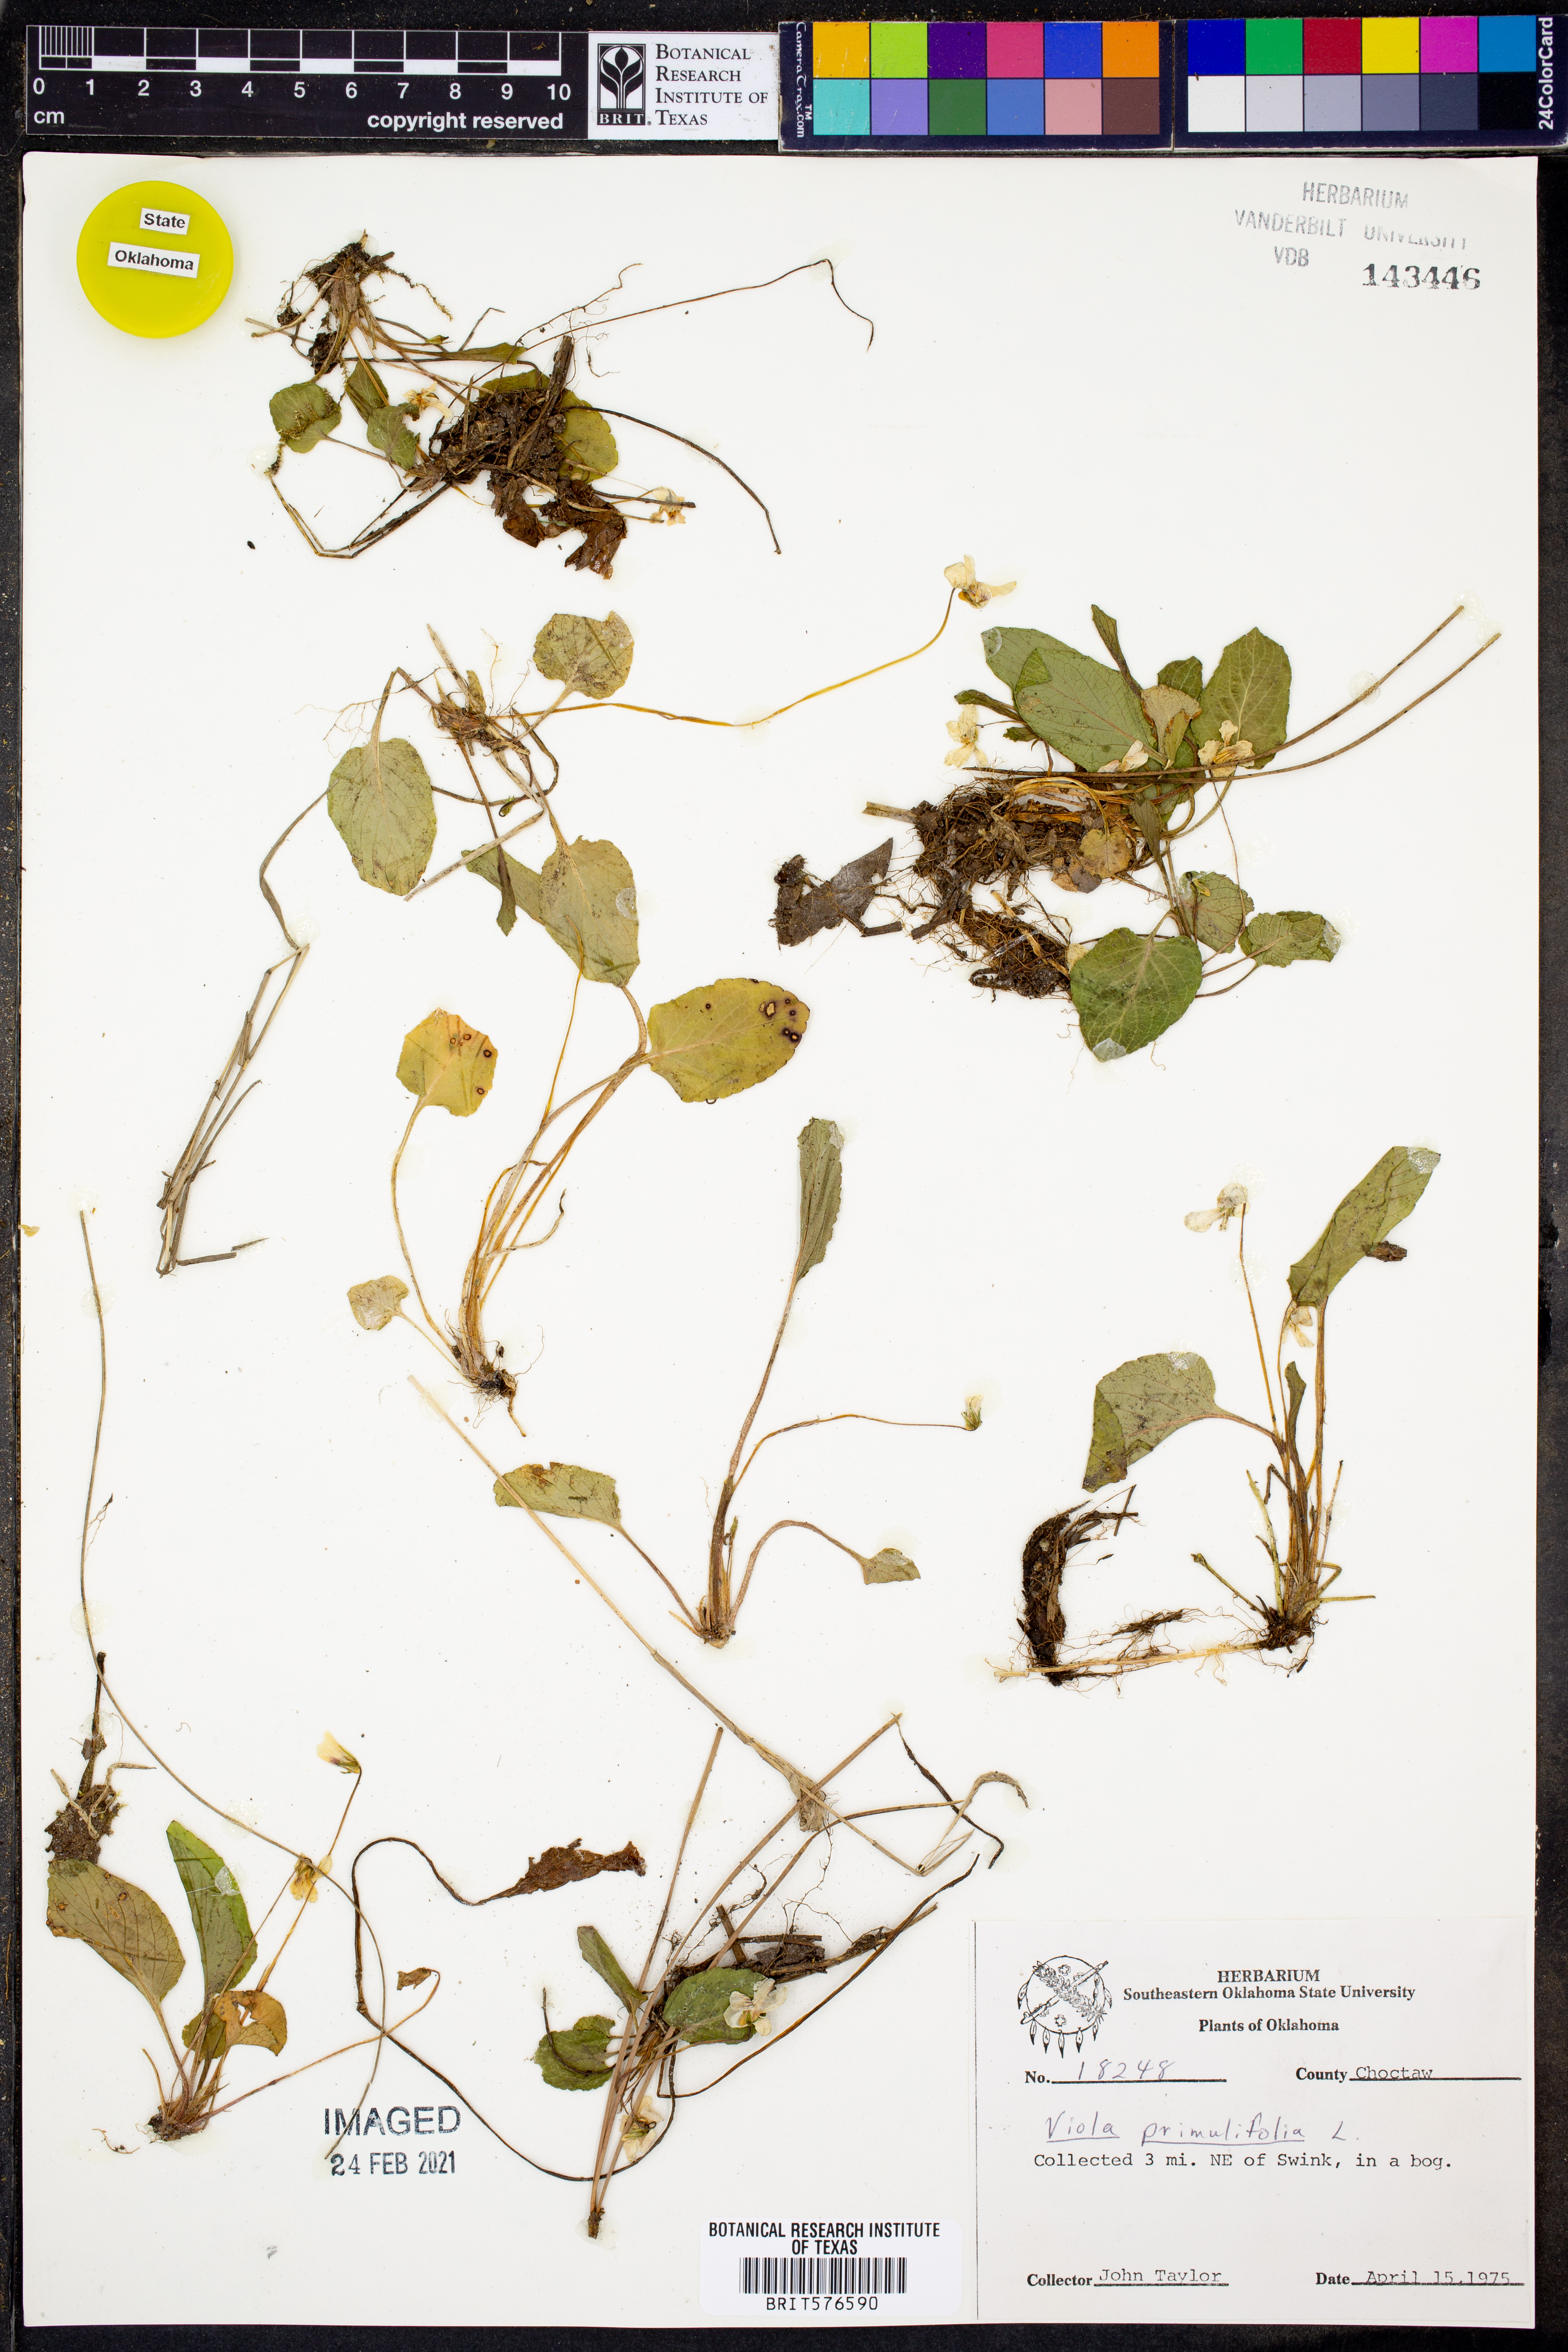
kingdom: Plantae
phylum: Tracheophyta
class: Magnoliopsida
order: Malpighiales
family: Violaceae
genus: Viola
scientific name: Viola primulifolia
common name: Primrose-leaf violet
